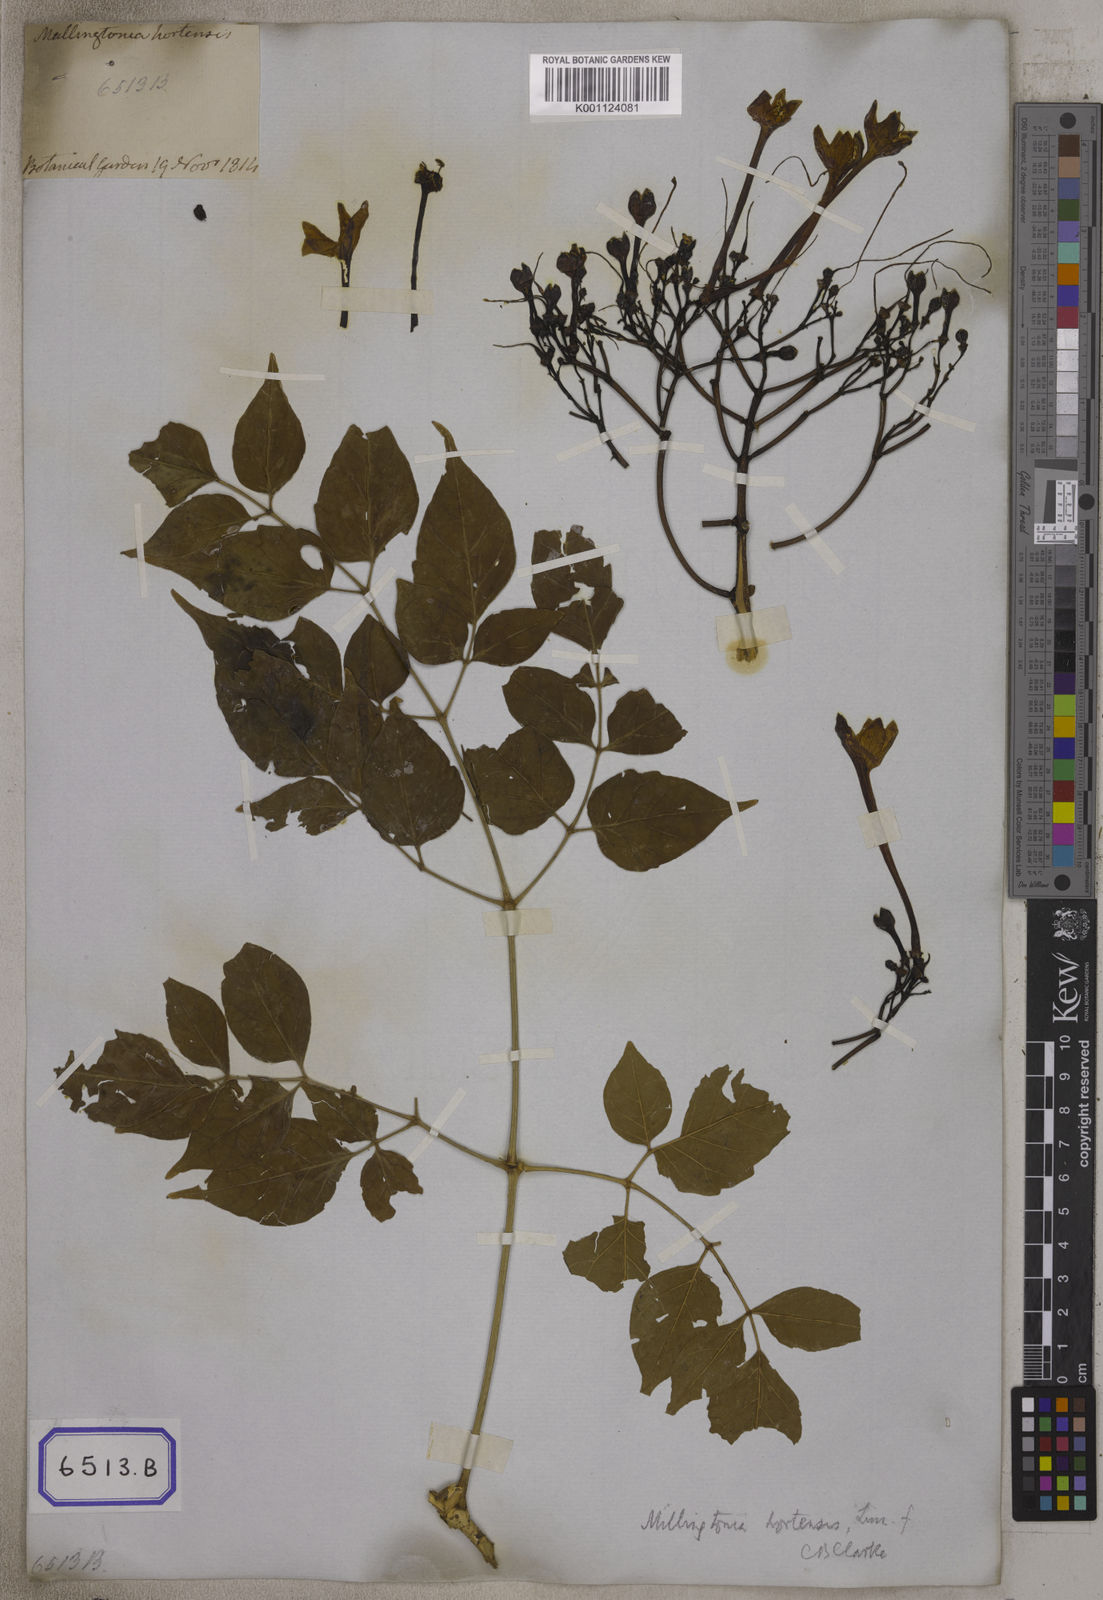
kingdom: Plantae
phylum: Tracheophyta
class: Magnoliopsida
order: Lamiales
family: Bignoniaceae
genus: Bignonia
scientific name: Bignonia
